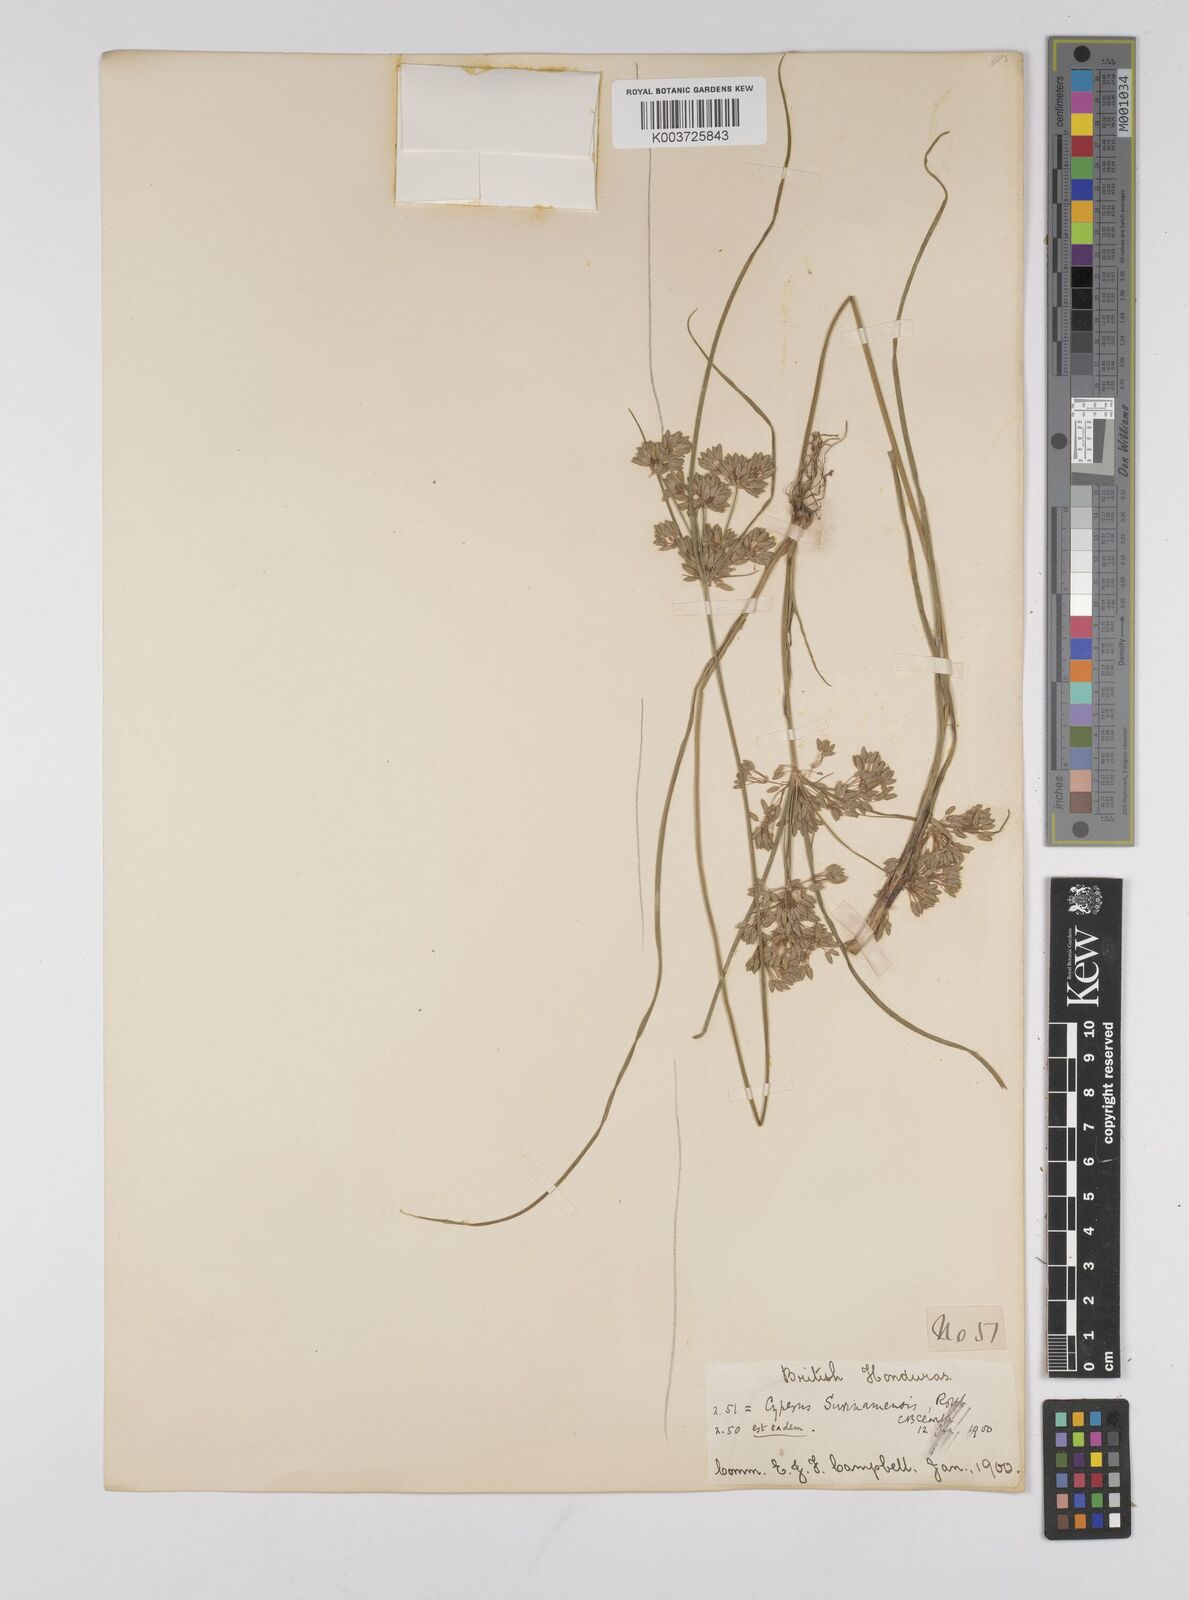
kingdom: Plantae
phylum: Tracheophyta
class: Liliopsida
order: Poales
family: Cyperaceae
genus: Cyperus
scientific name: Cyperus surinamensis
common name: Tropical flat sedge
